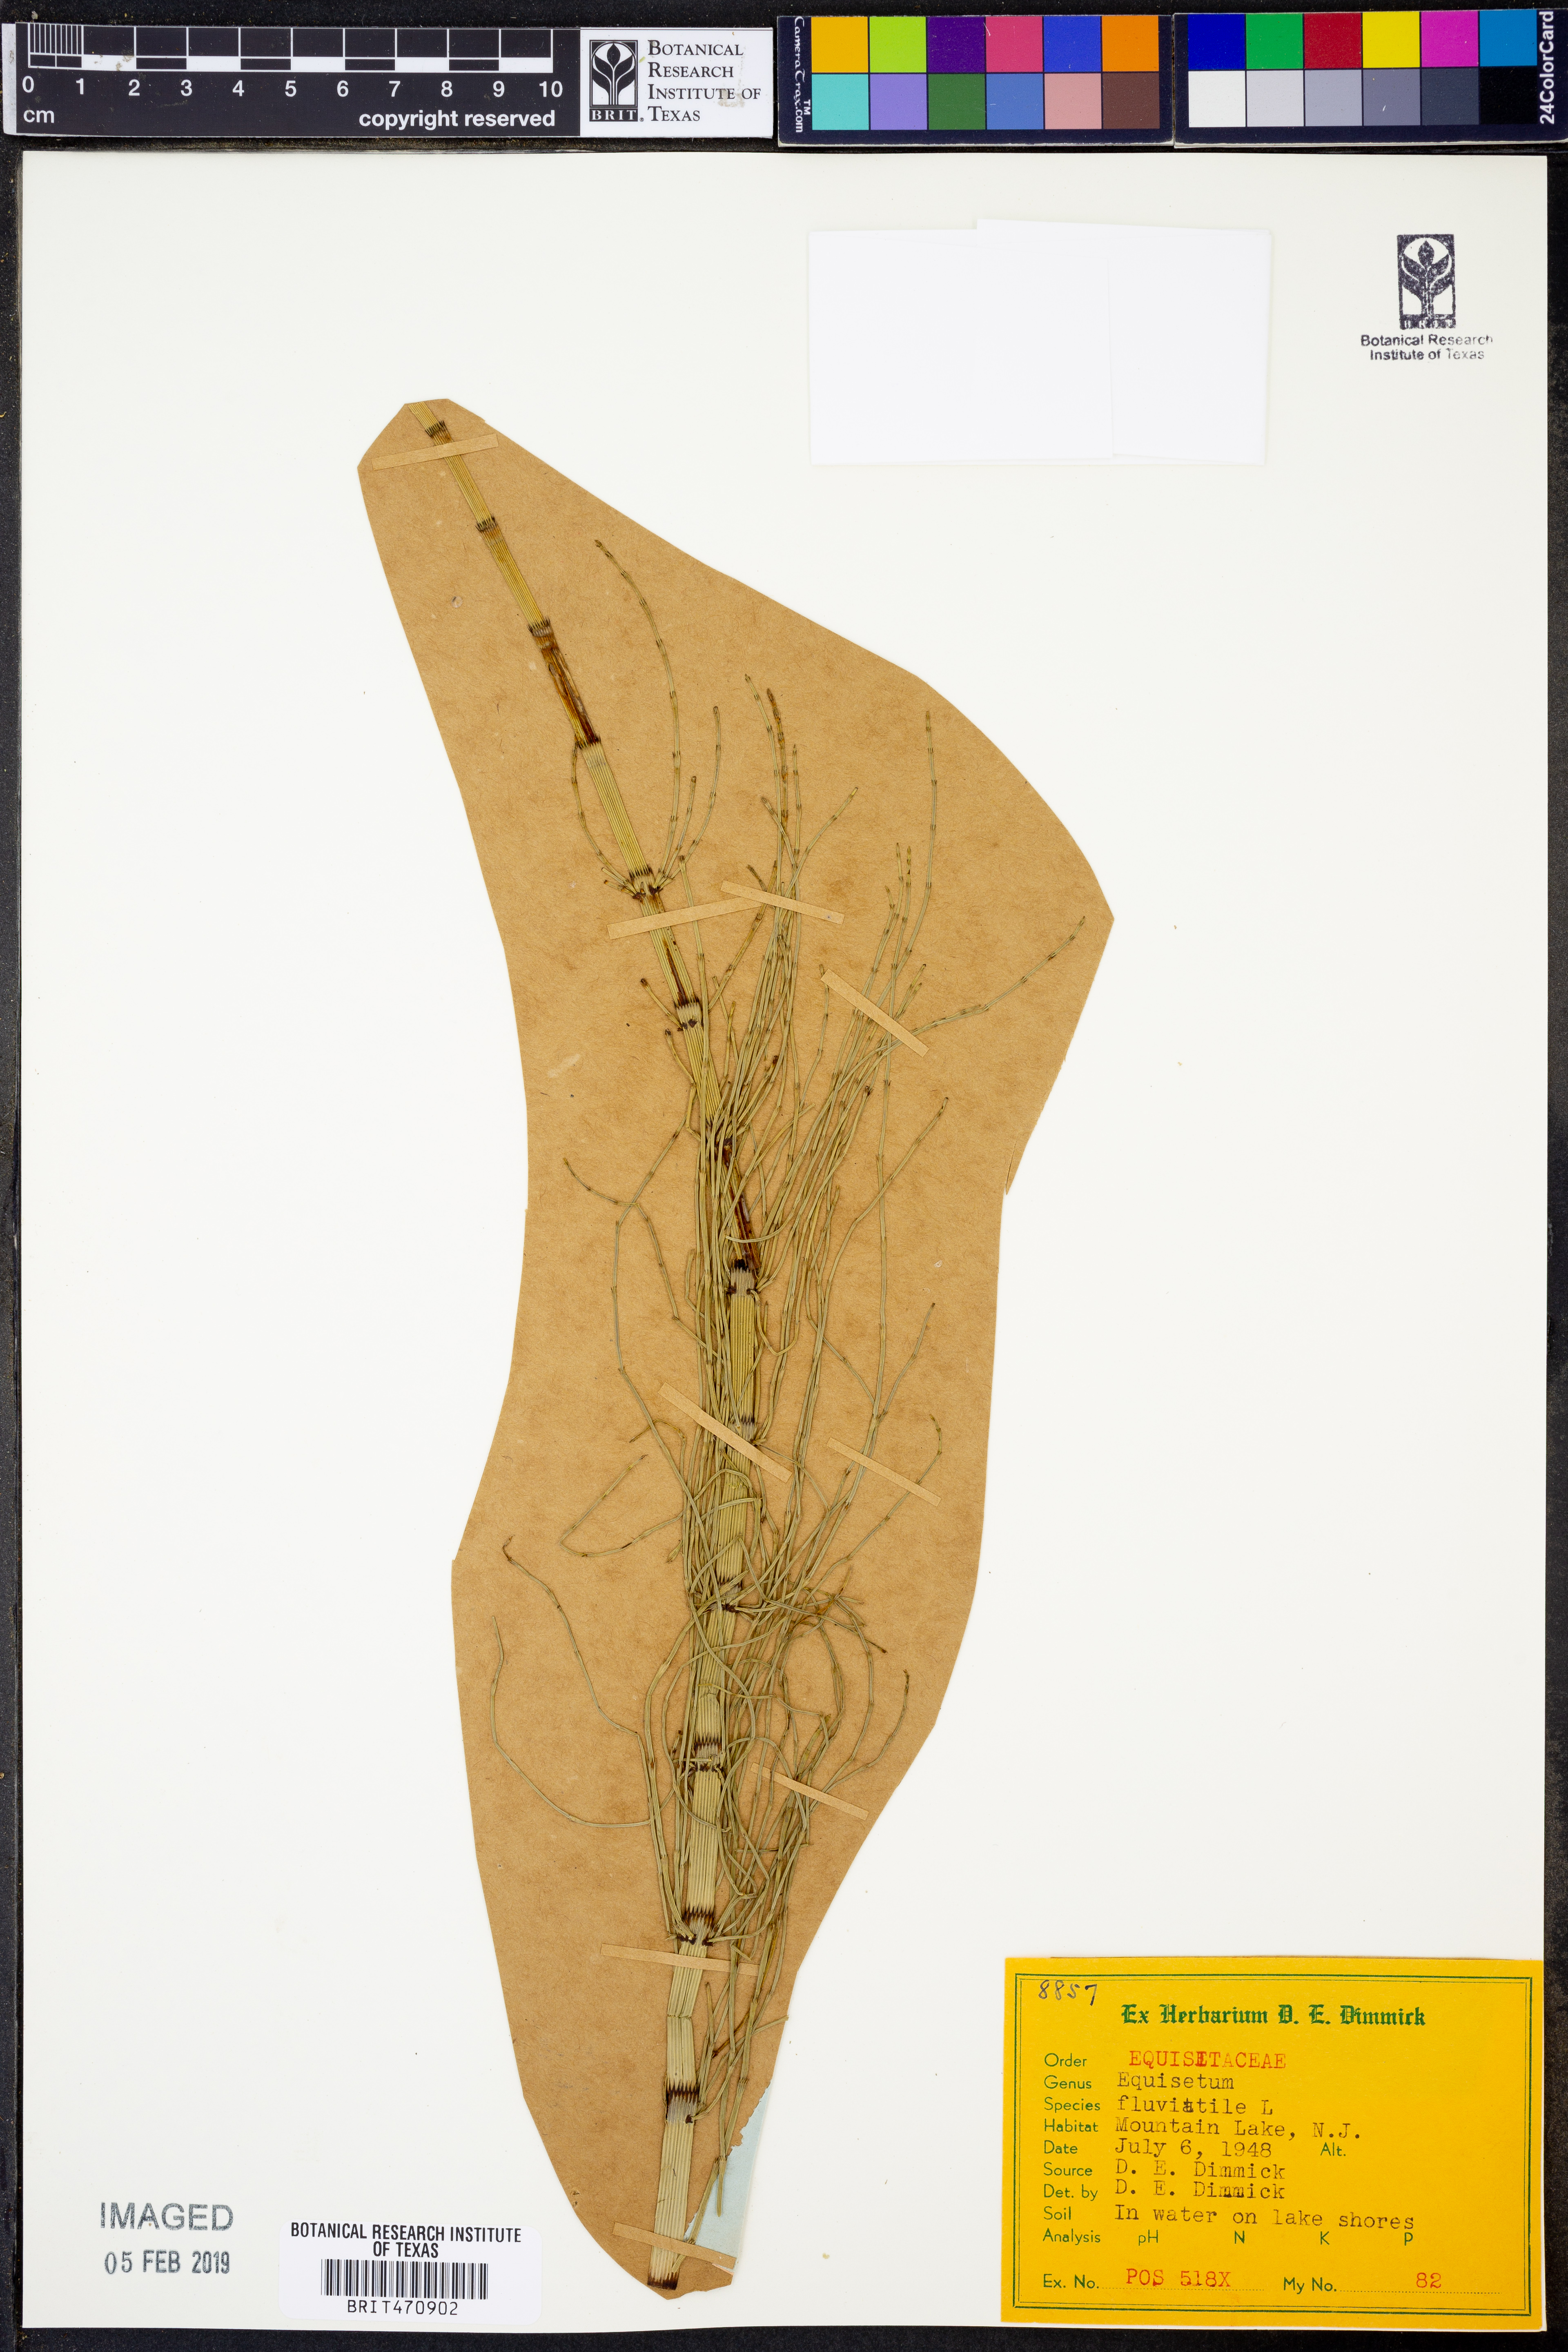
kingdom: Plantae
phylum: Tracheophyta
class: Polypodiopsida
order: Equisetales
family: Equisetaceae
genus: Equisetum
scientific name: Equisetum fluviatile
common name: Water horsetail
